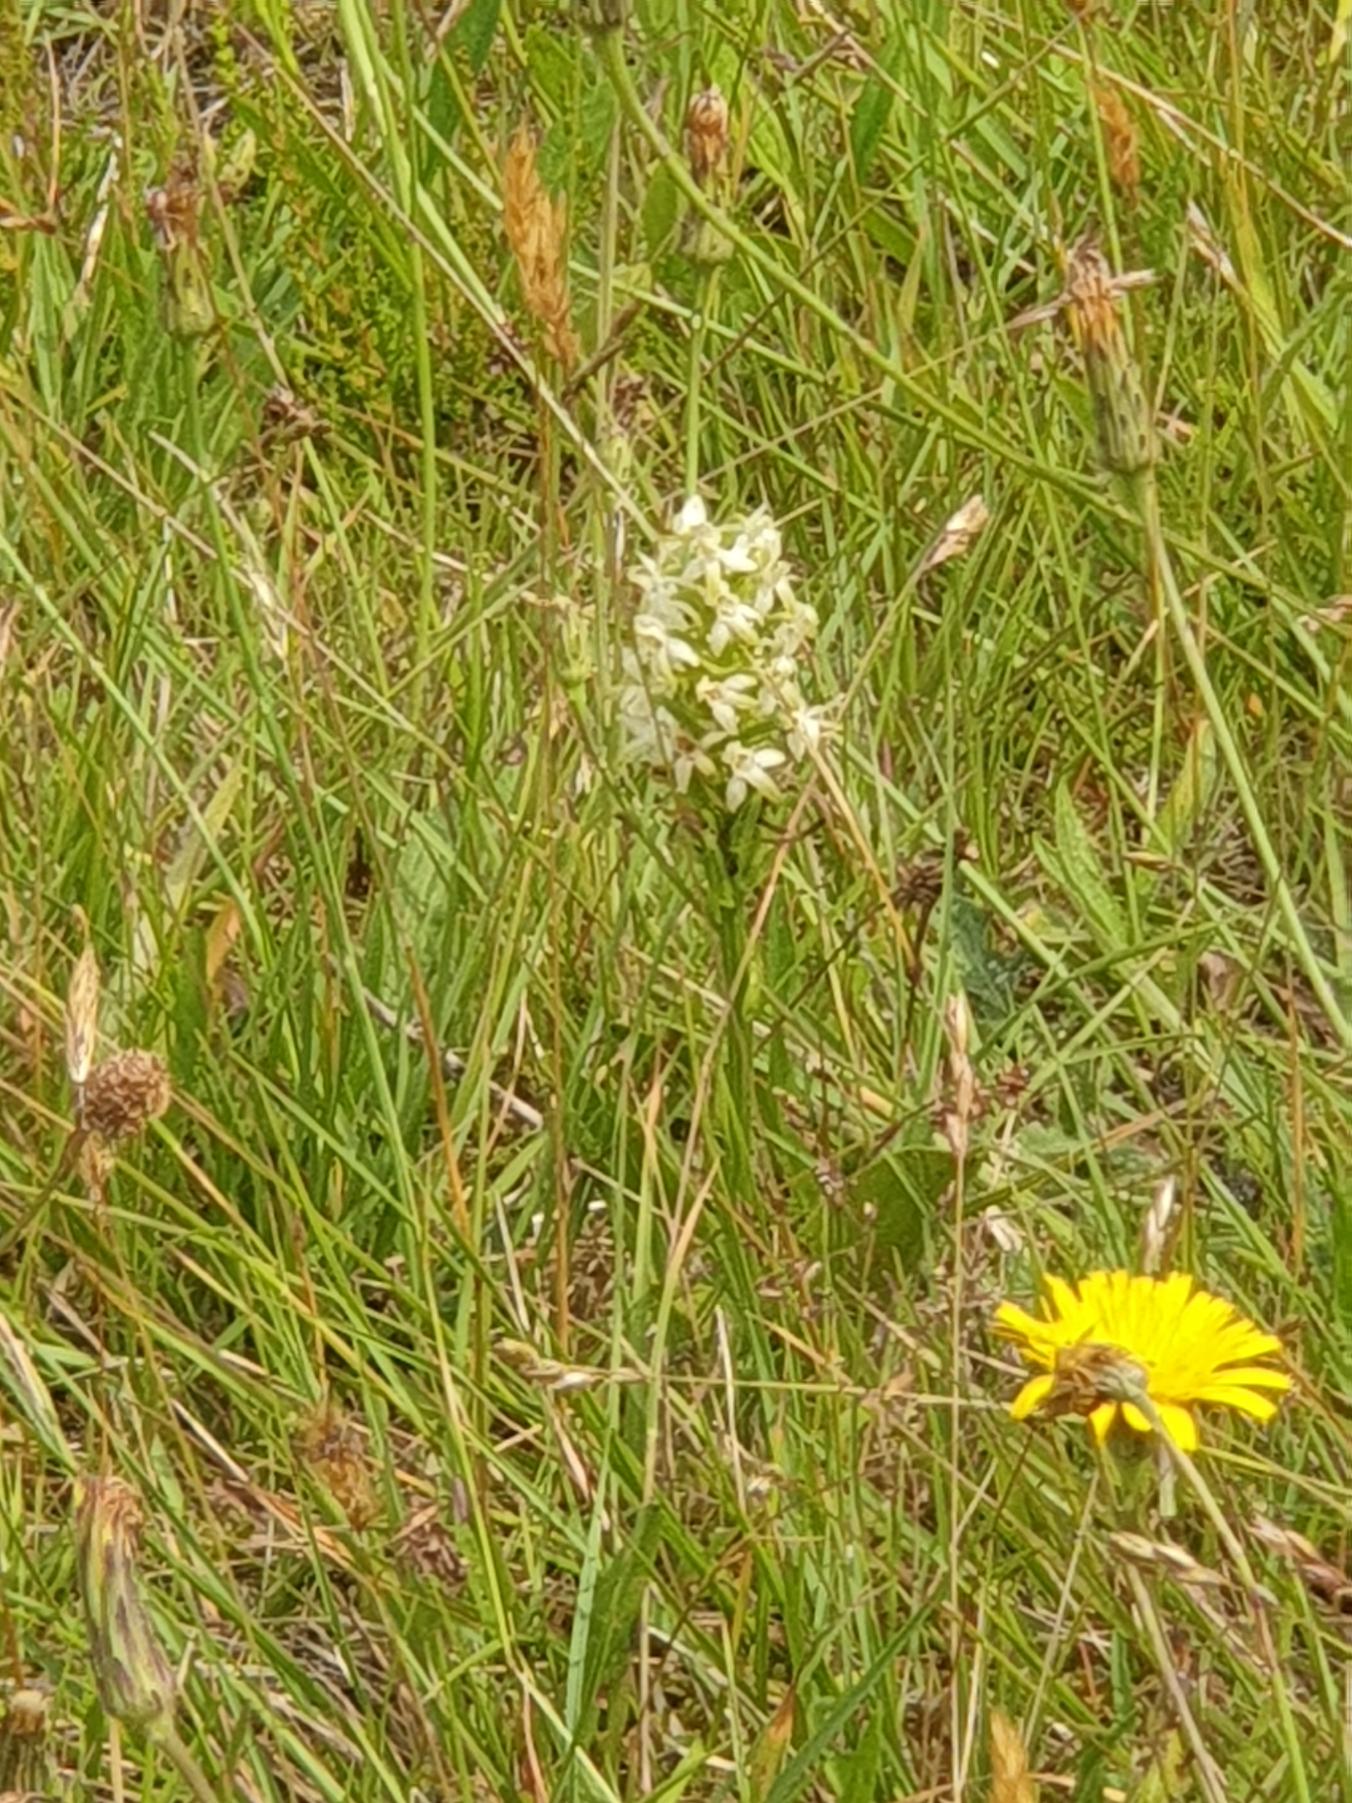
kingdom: Plantae
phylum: Tracheophyta
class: Liliopsida
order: Asparagales
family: Orchidaceae
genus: Platanthera
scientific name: Platanthera chlorantha
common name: Skov-gøgelilje
